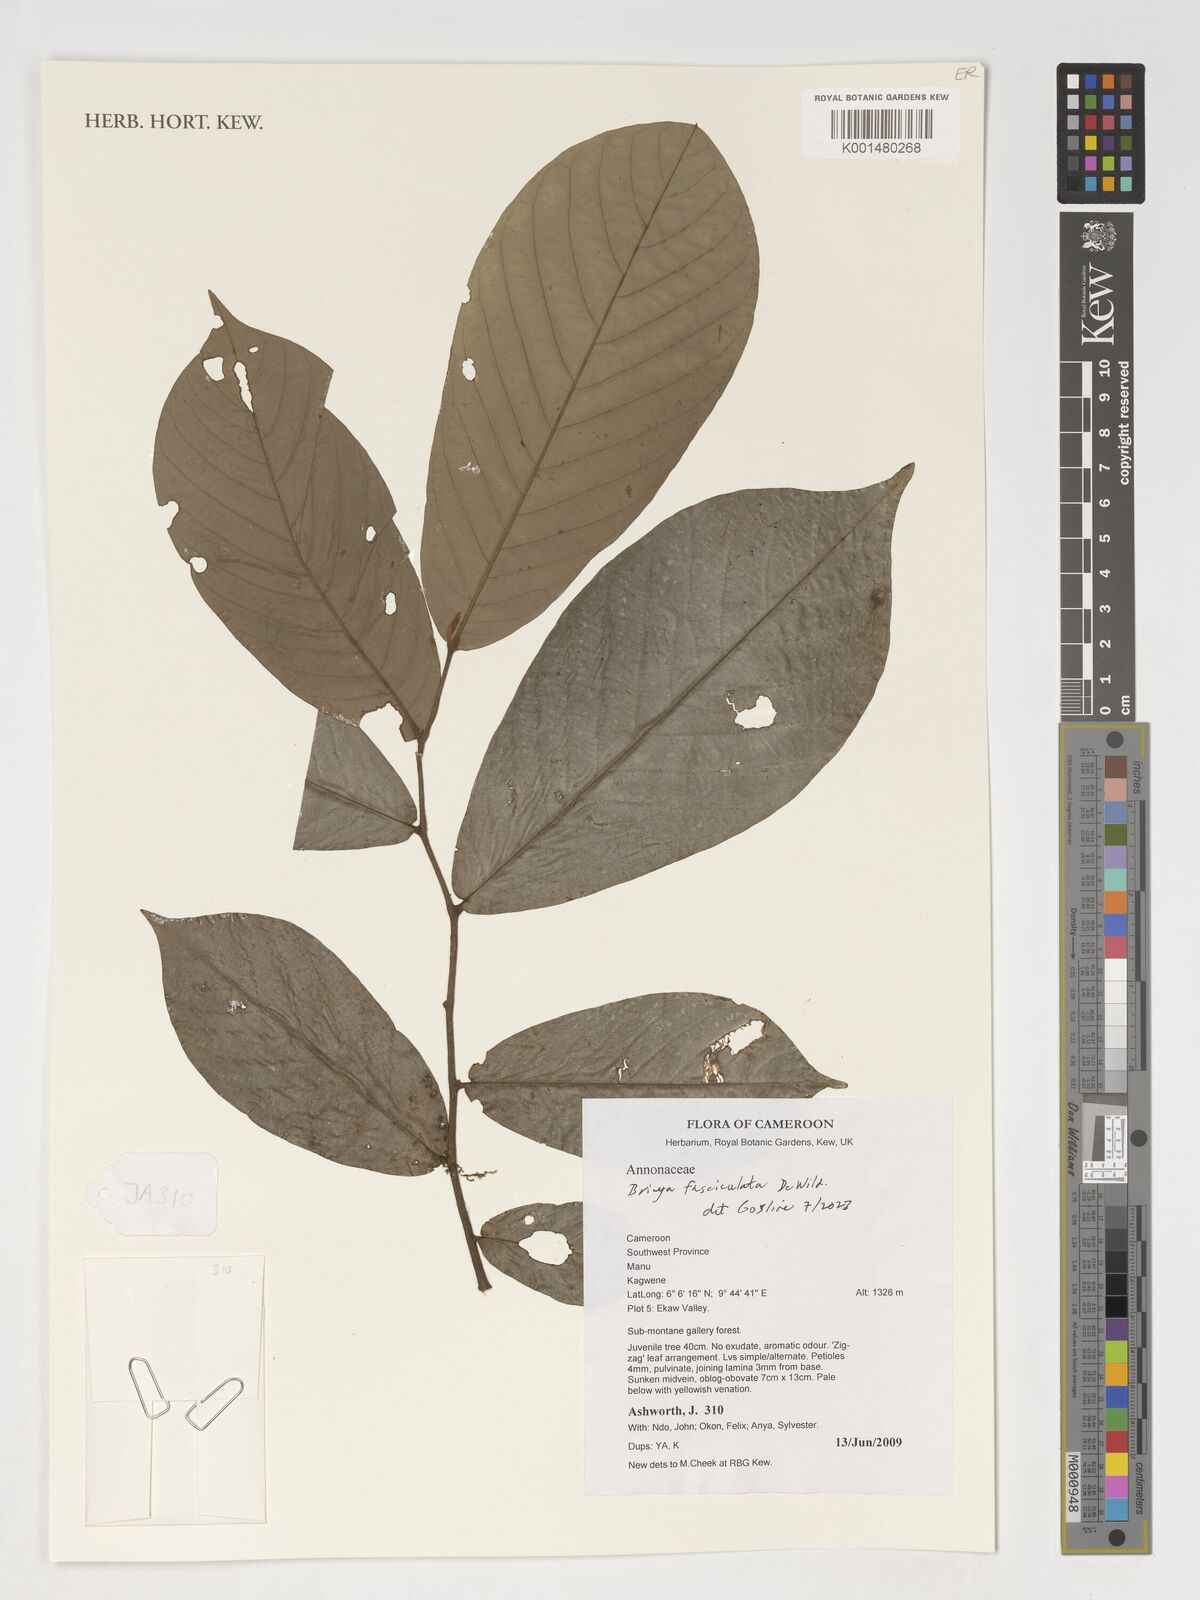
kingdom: Plantae
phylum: Tracheophyta
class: Magnoliopsida
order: Magnoliales
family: Annonaceae
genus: Piptostigma
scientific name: Piptostigma fasciculatum
